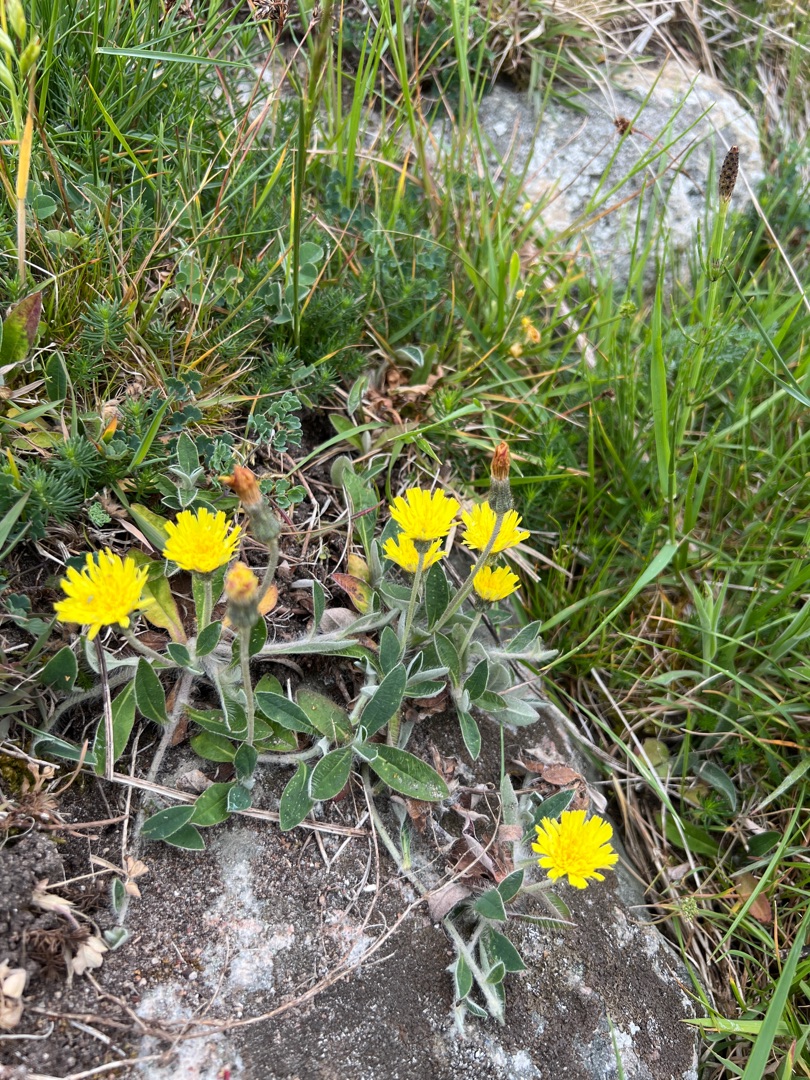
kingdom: Plantae
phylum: Tracheophyta
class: Magnoliopsida
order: Asterales
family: Asteraceae
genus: Pilosella
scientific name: Pilosella officinarum
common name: Håret høgeurt
